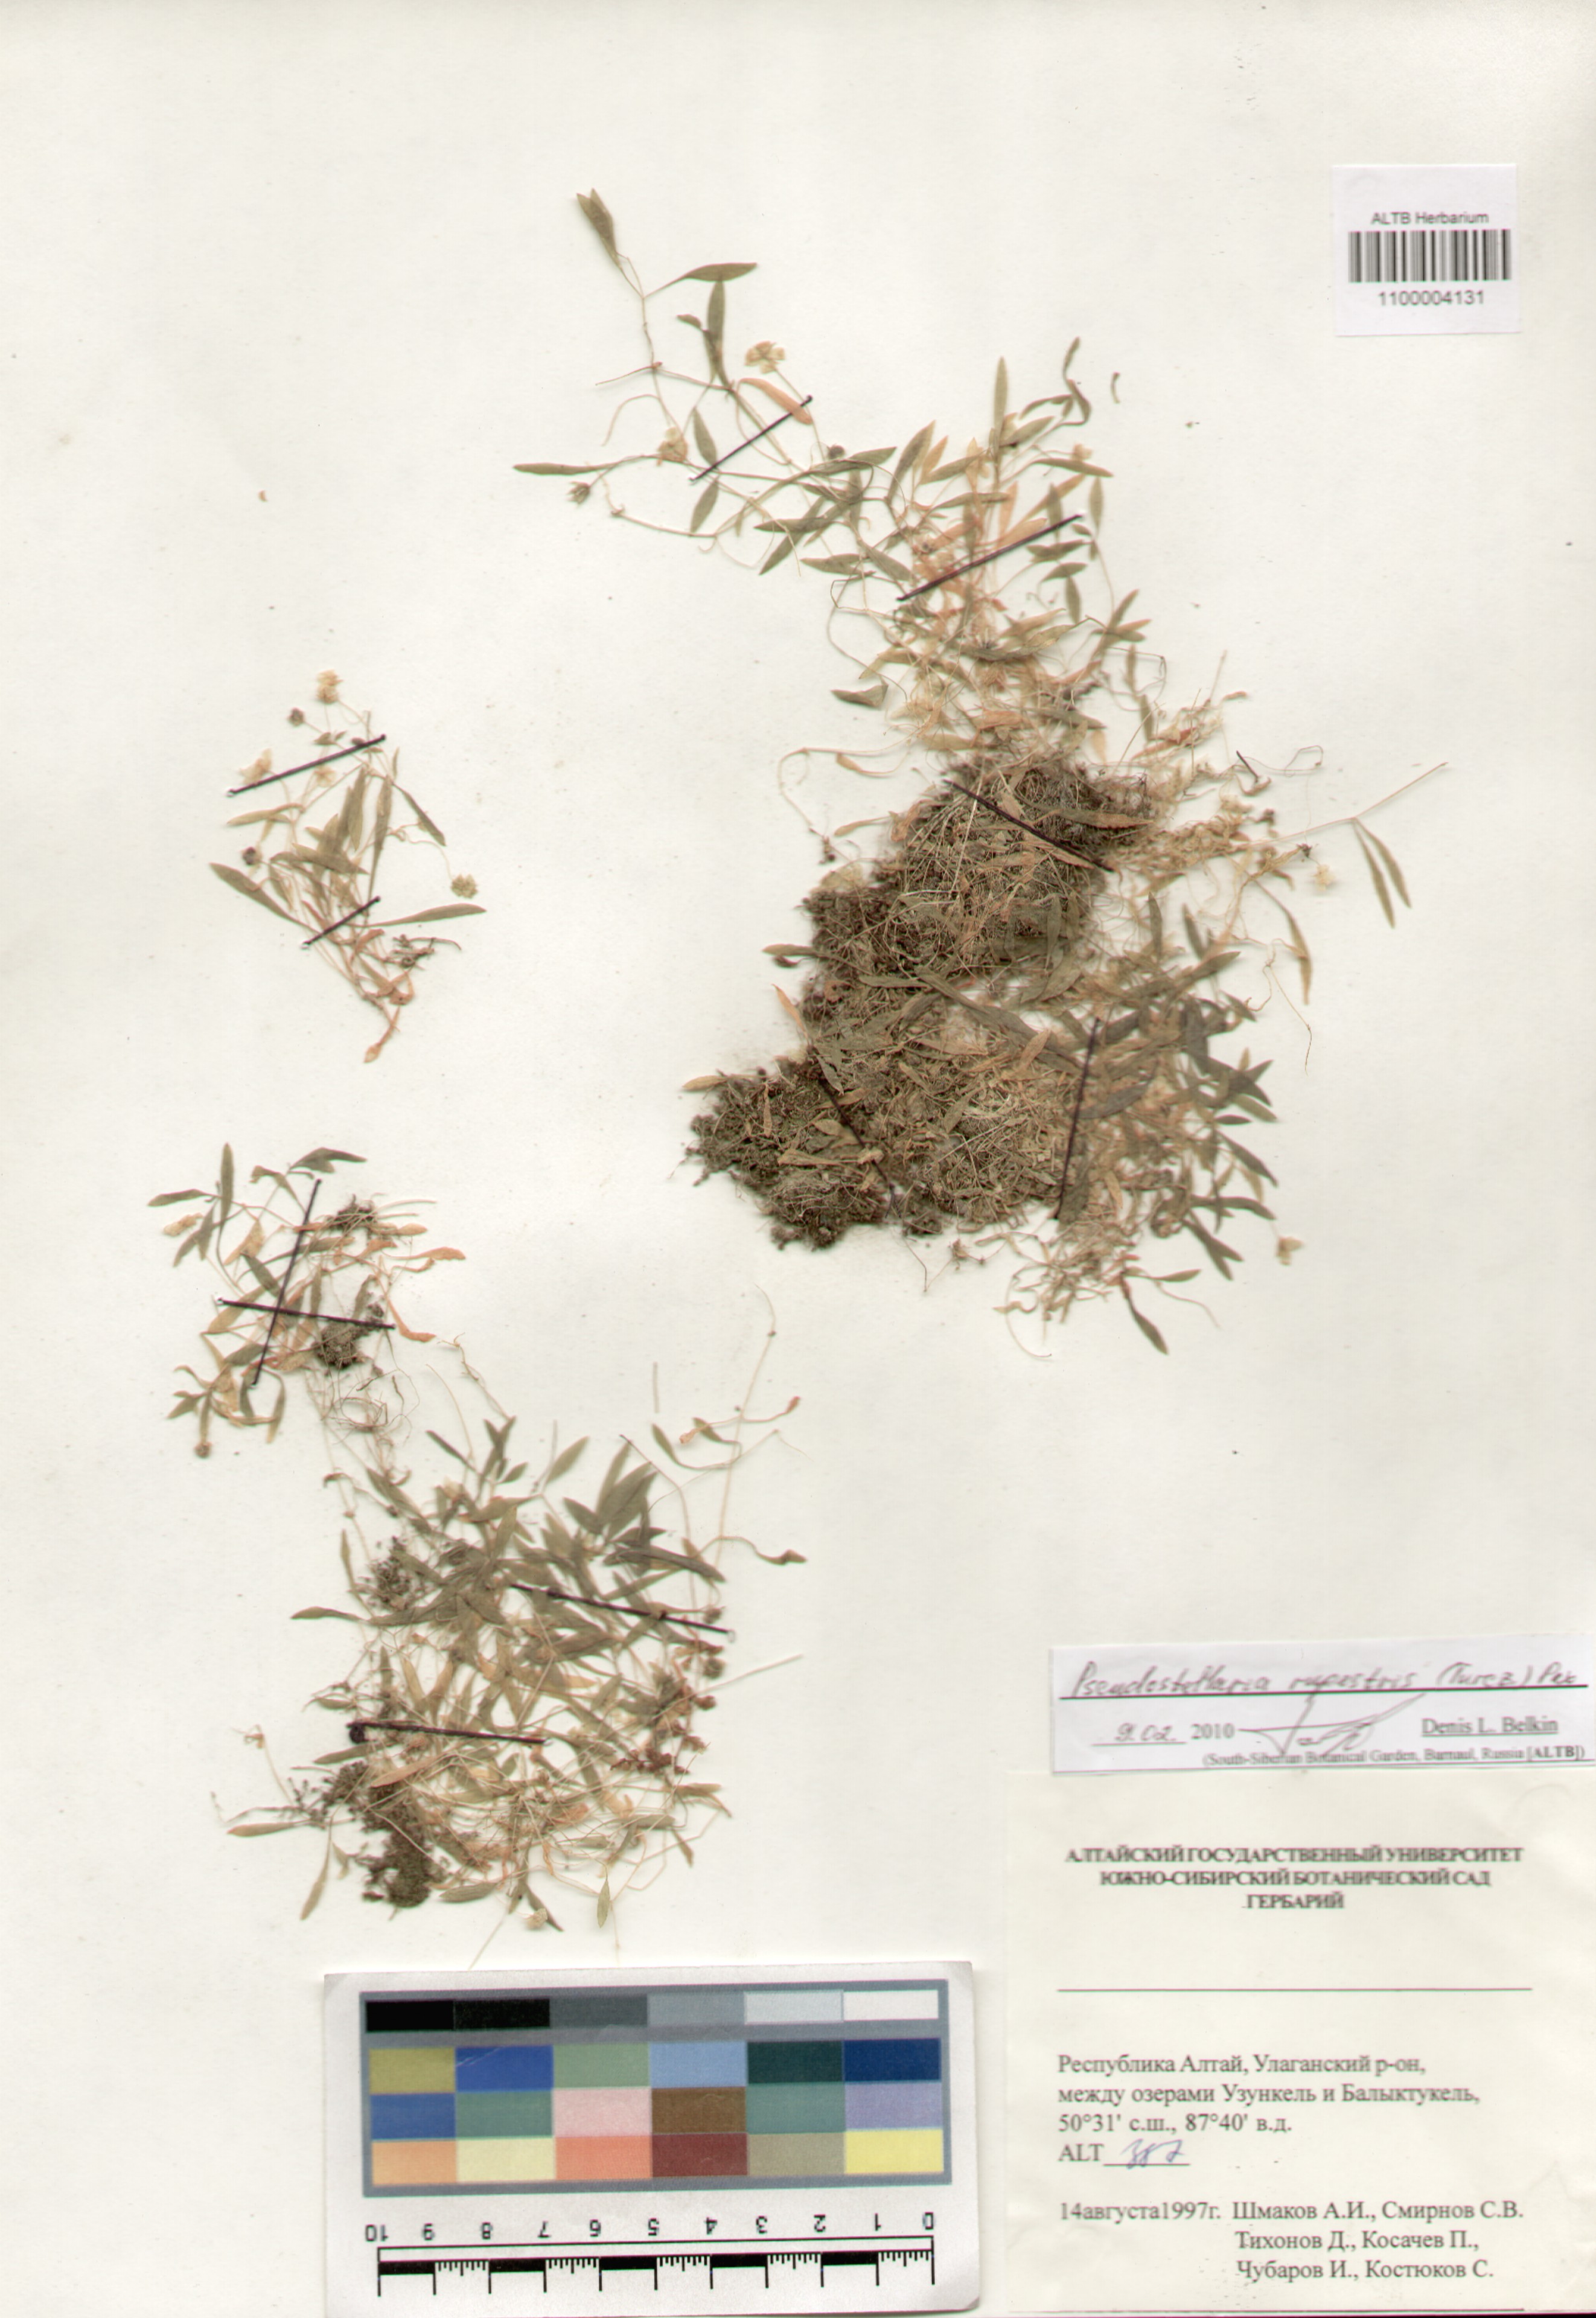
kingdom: Plantae
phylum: Tracheophyta
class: Magnoliopsida
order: Caryophyllales
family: Caryophyllaceae
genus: Pseudostellaria
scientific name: Pseudostellaria sylvatica
